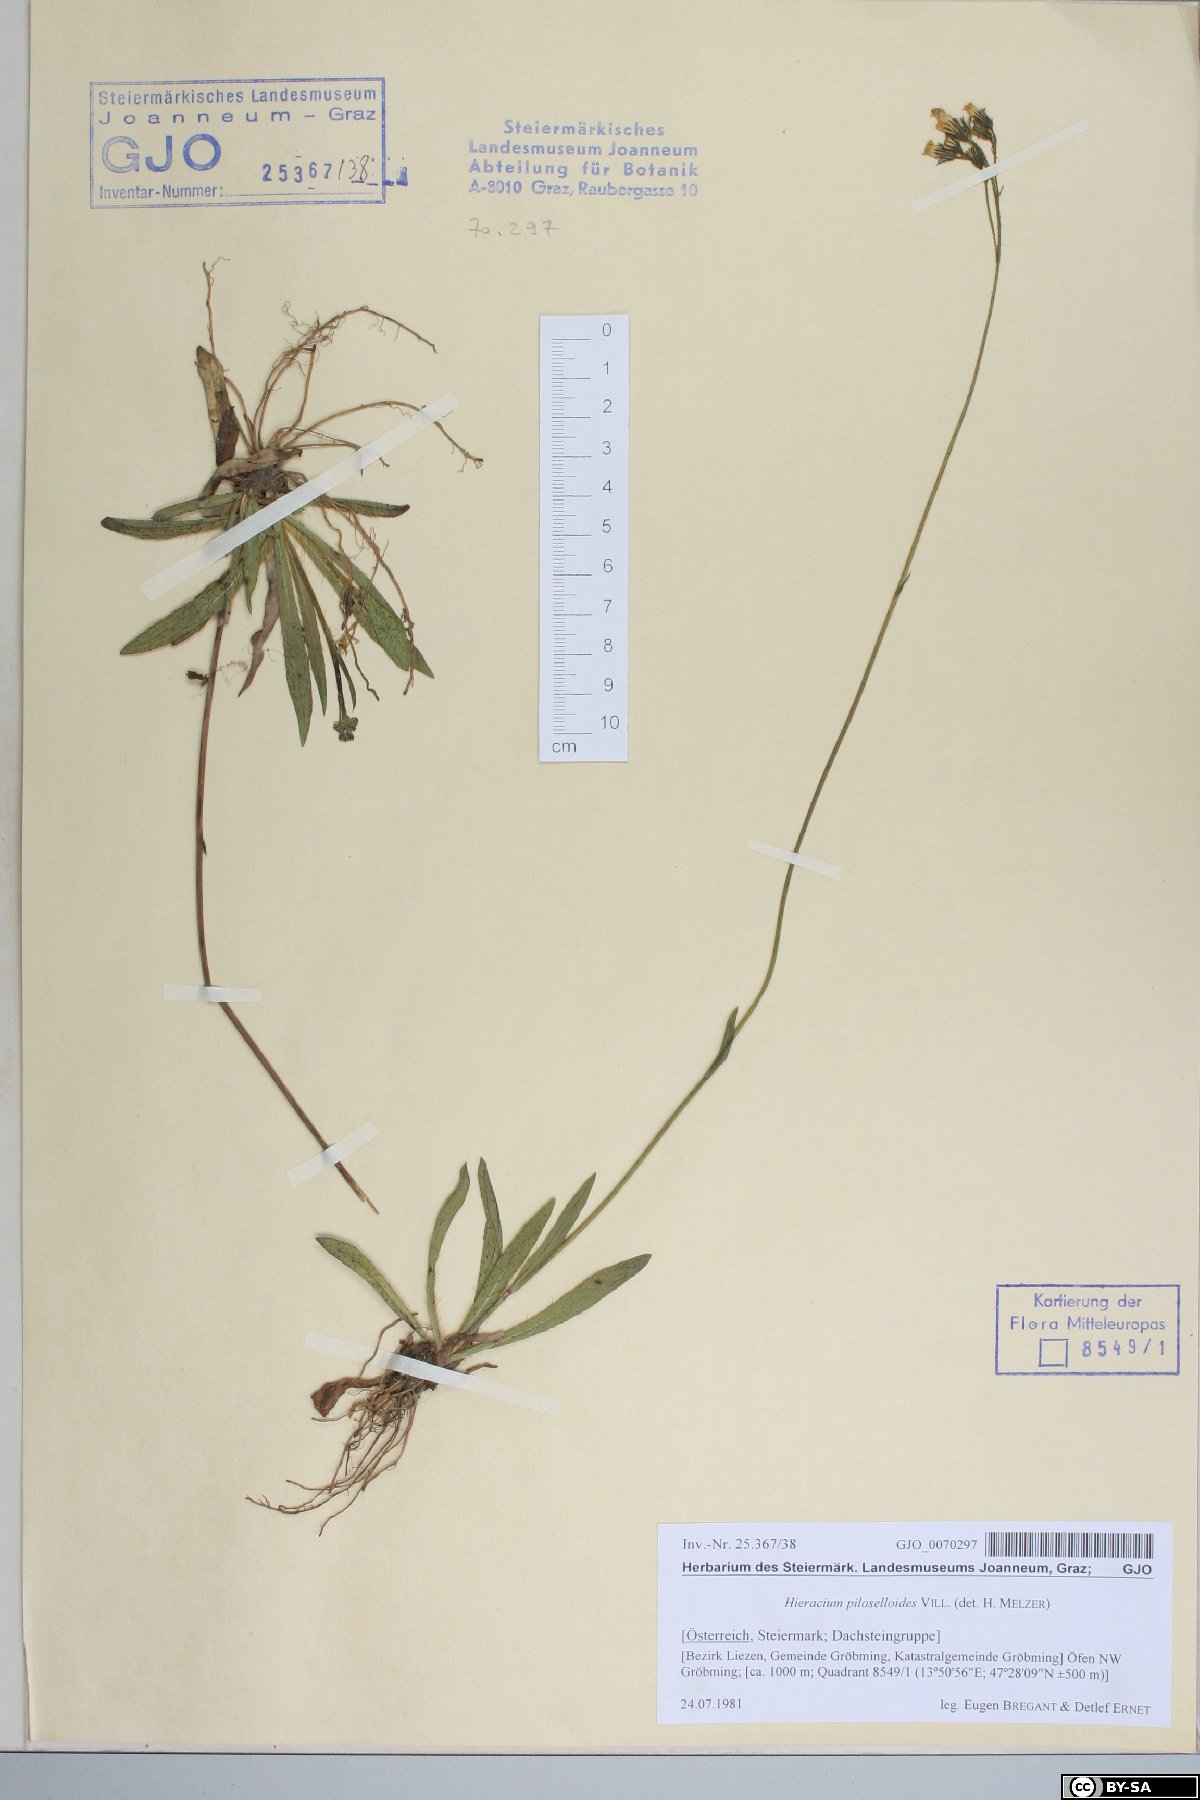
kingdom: Plantae
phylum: Tracheophyta
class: Magnoliopsida
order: Asterales
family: Asteraceae
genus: Pilosella
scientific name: Pilosella piloselloides
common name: Glaucous king-devil
